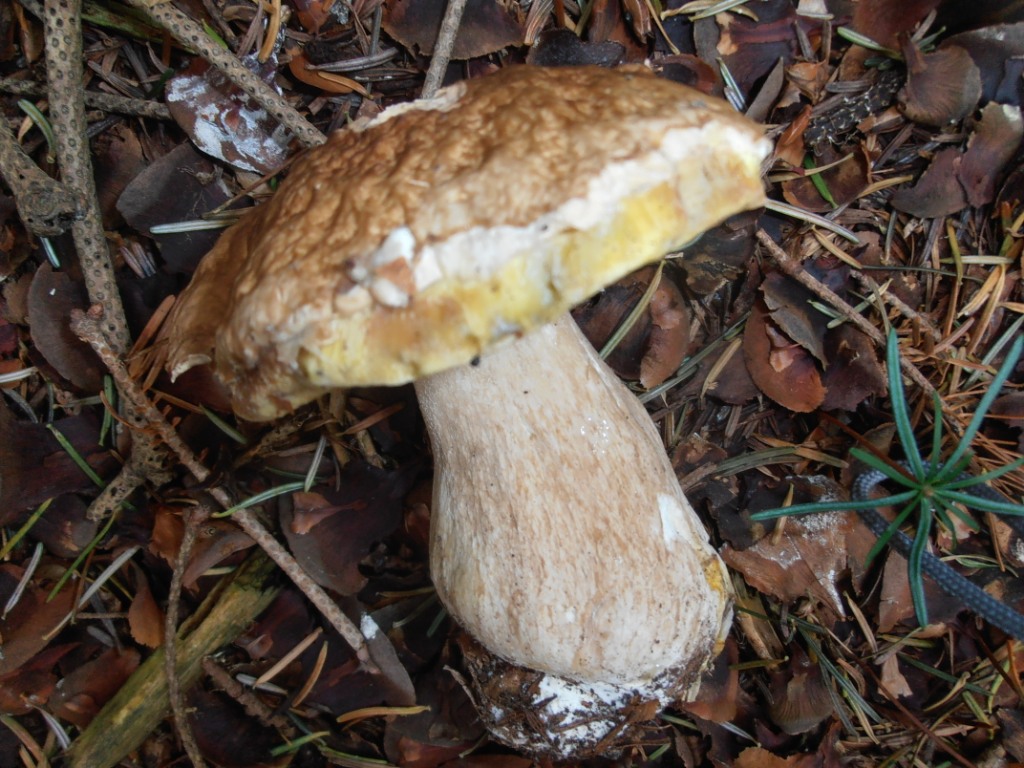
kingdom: Fungi
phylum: Basidiomycota
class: Agaricomycetes
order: Boletales
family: Boletaceae
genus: Boletus
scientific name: Boletus edulis
